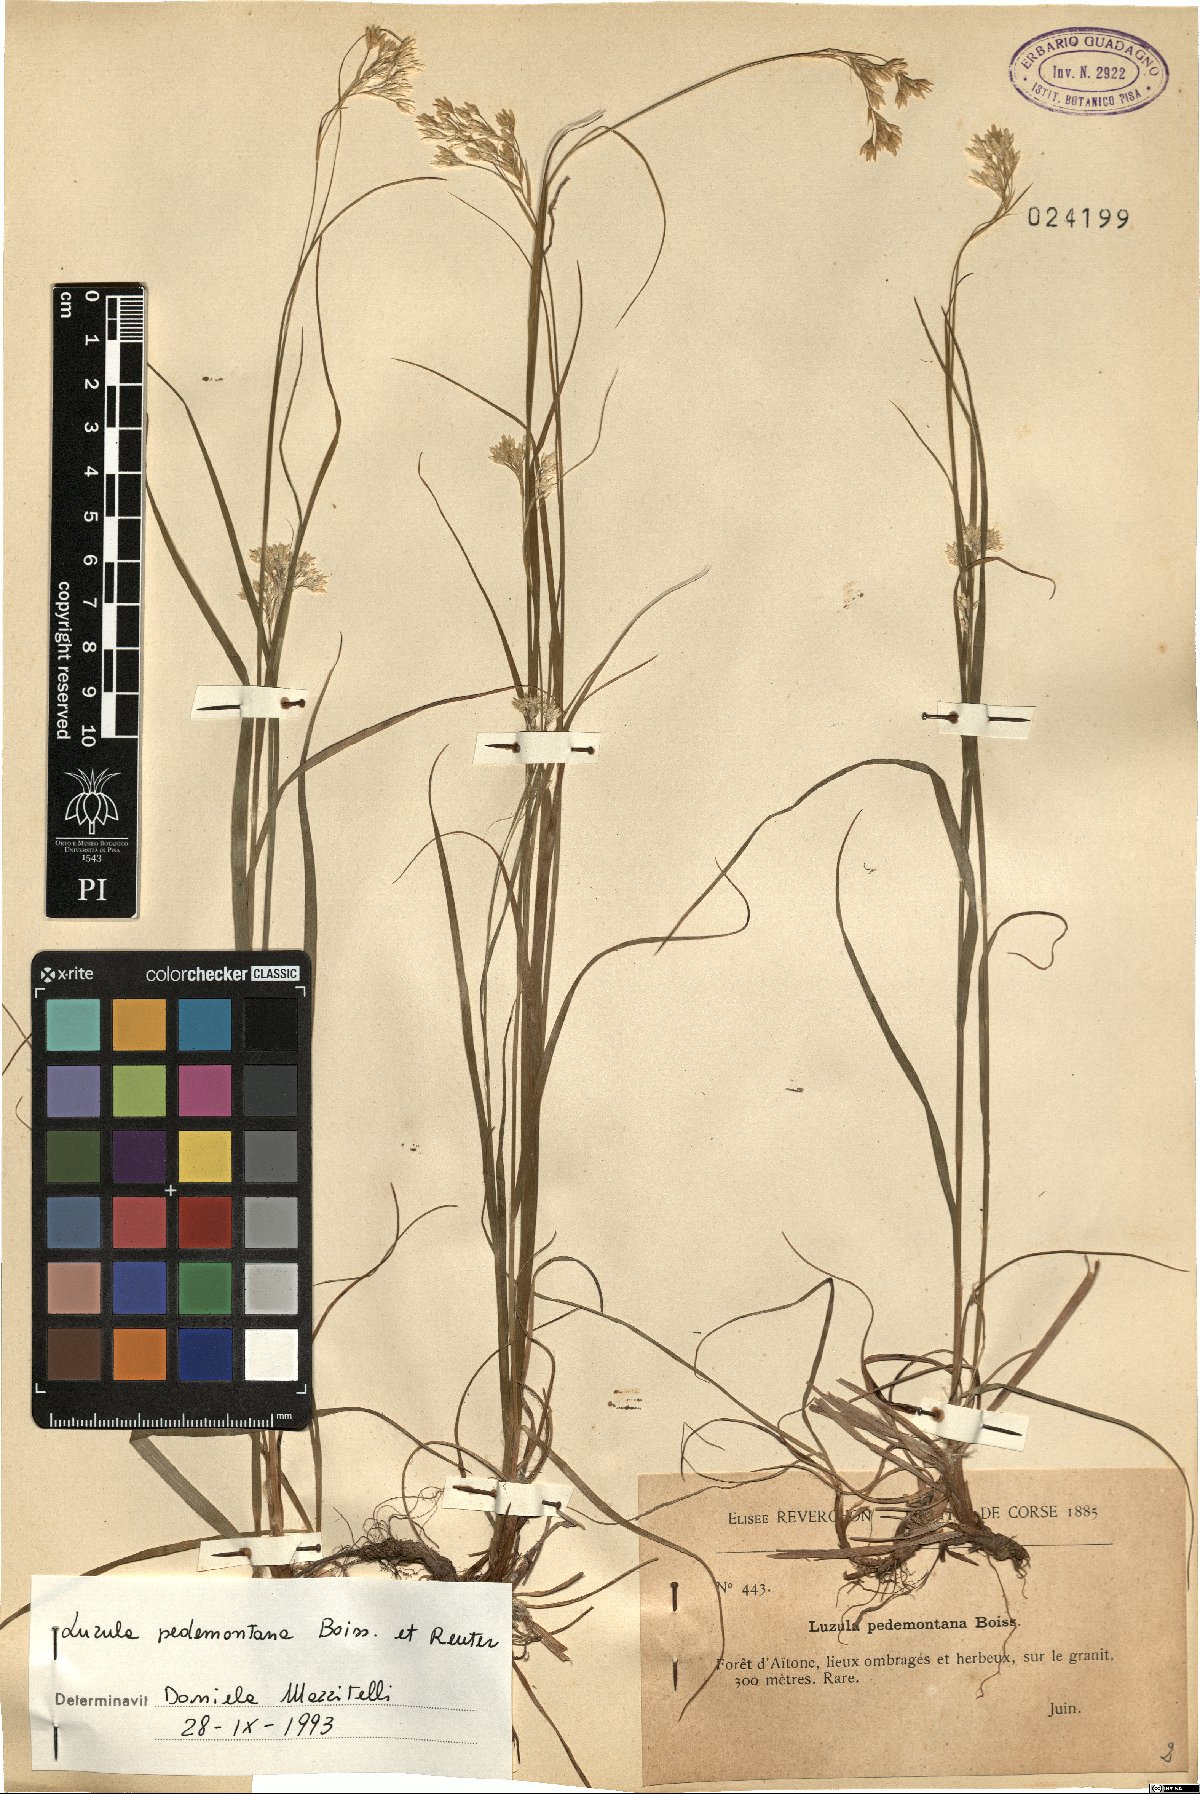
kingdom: Plantae
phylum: Tracheophyta
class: Liliopsida
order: Poales
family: Juncaceae
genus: Luzula
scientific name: Luzula pedemontana
